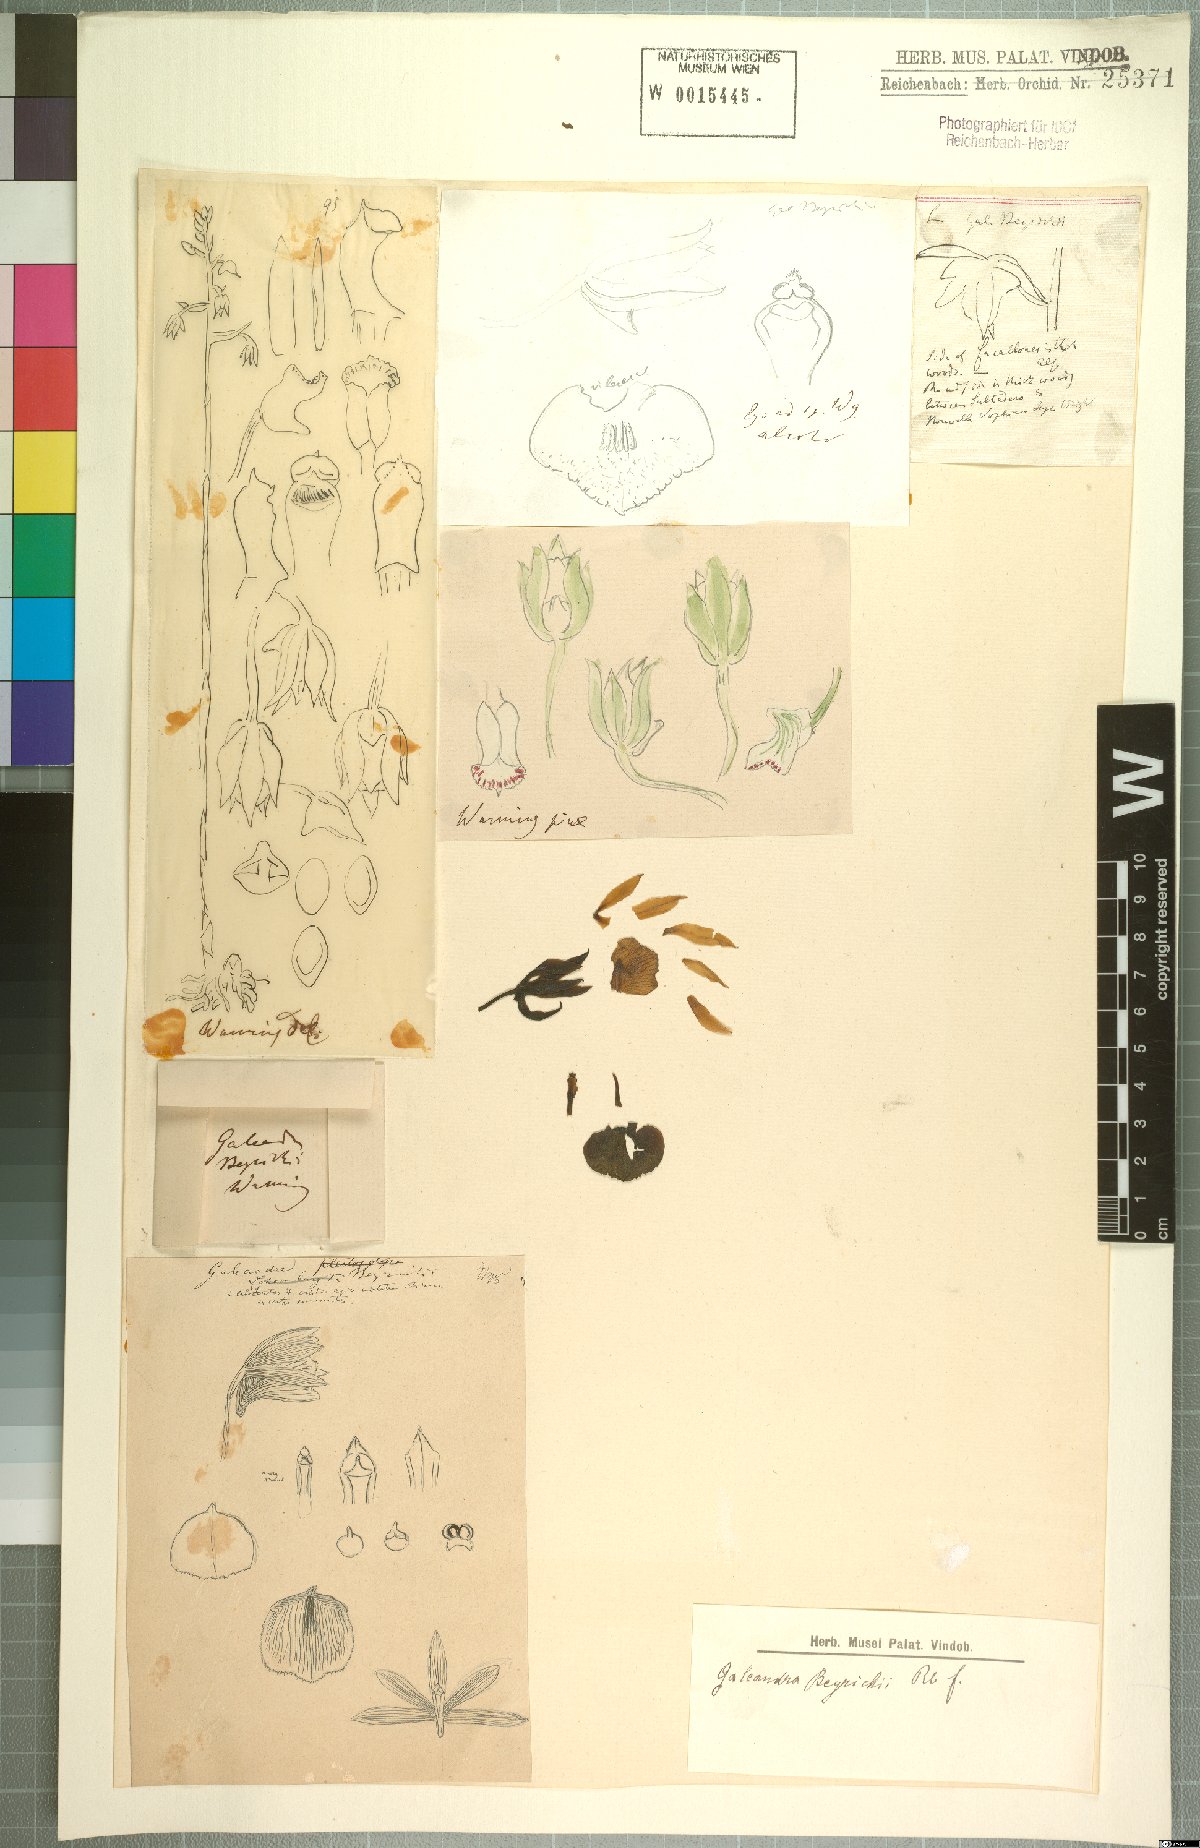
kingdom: Plantae
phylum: Tracheophyta
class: Liliopsida
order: Asparagales
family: Orchidaceae
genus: Galeandra
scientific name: Galeandra beyrichii
